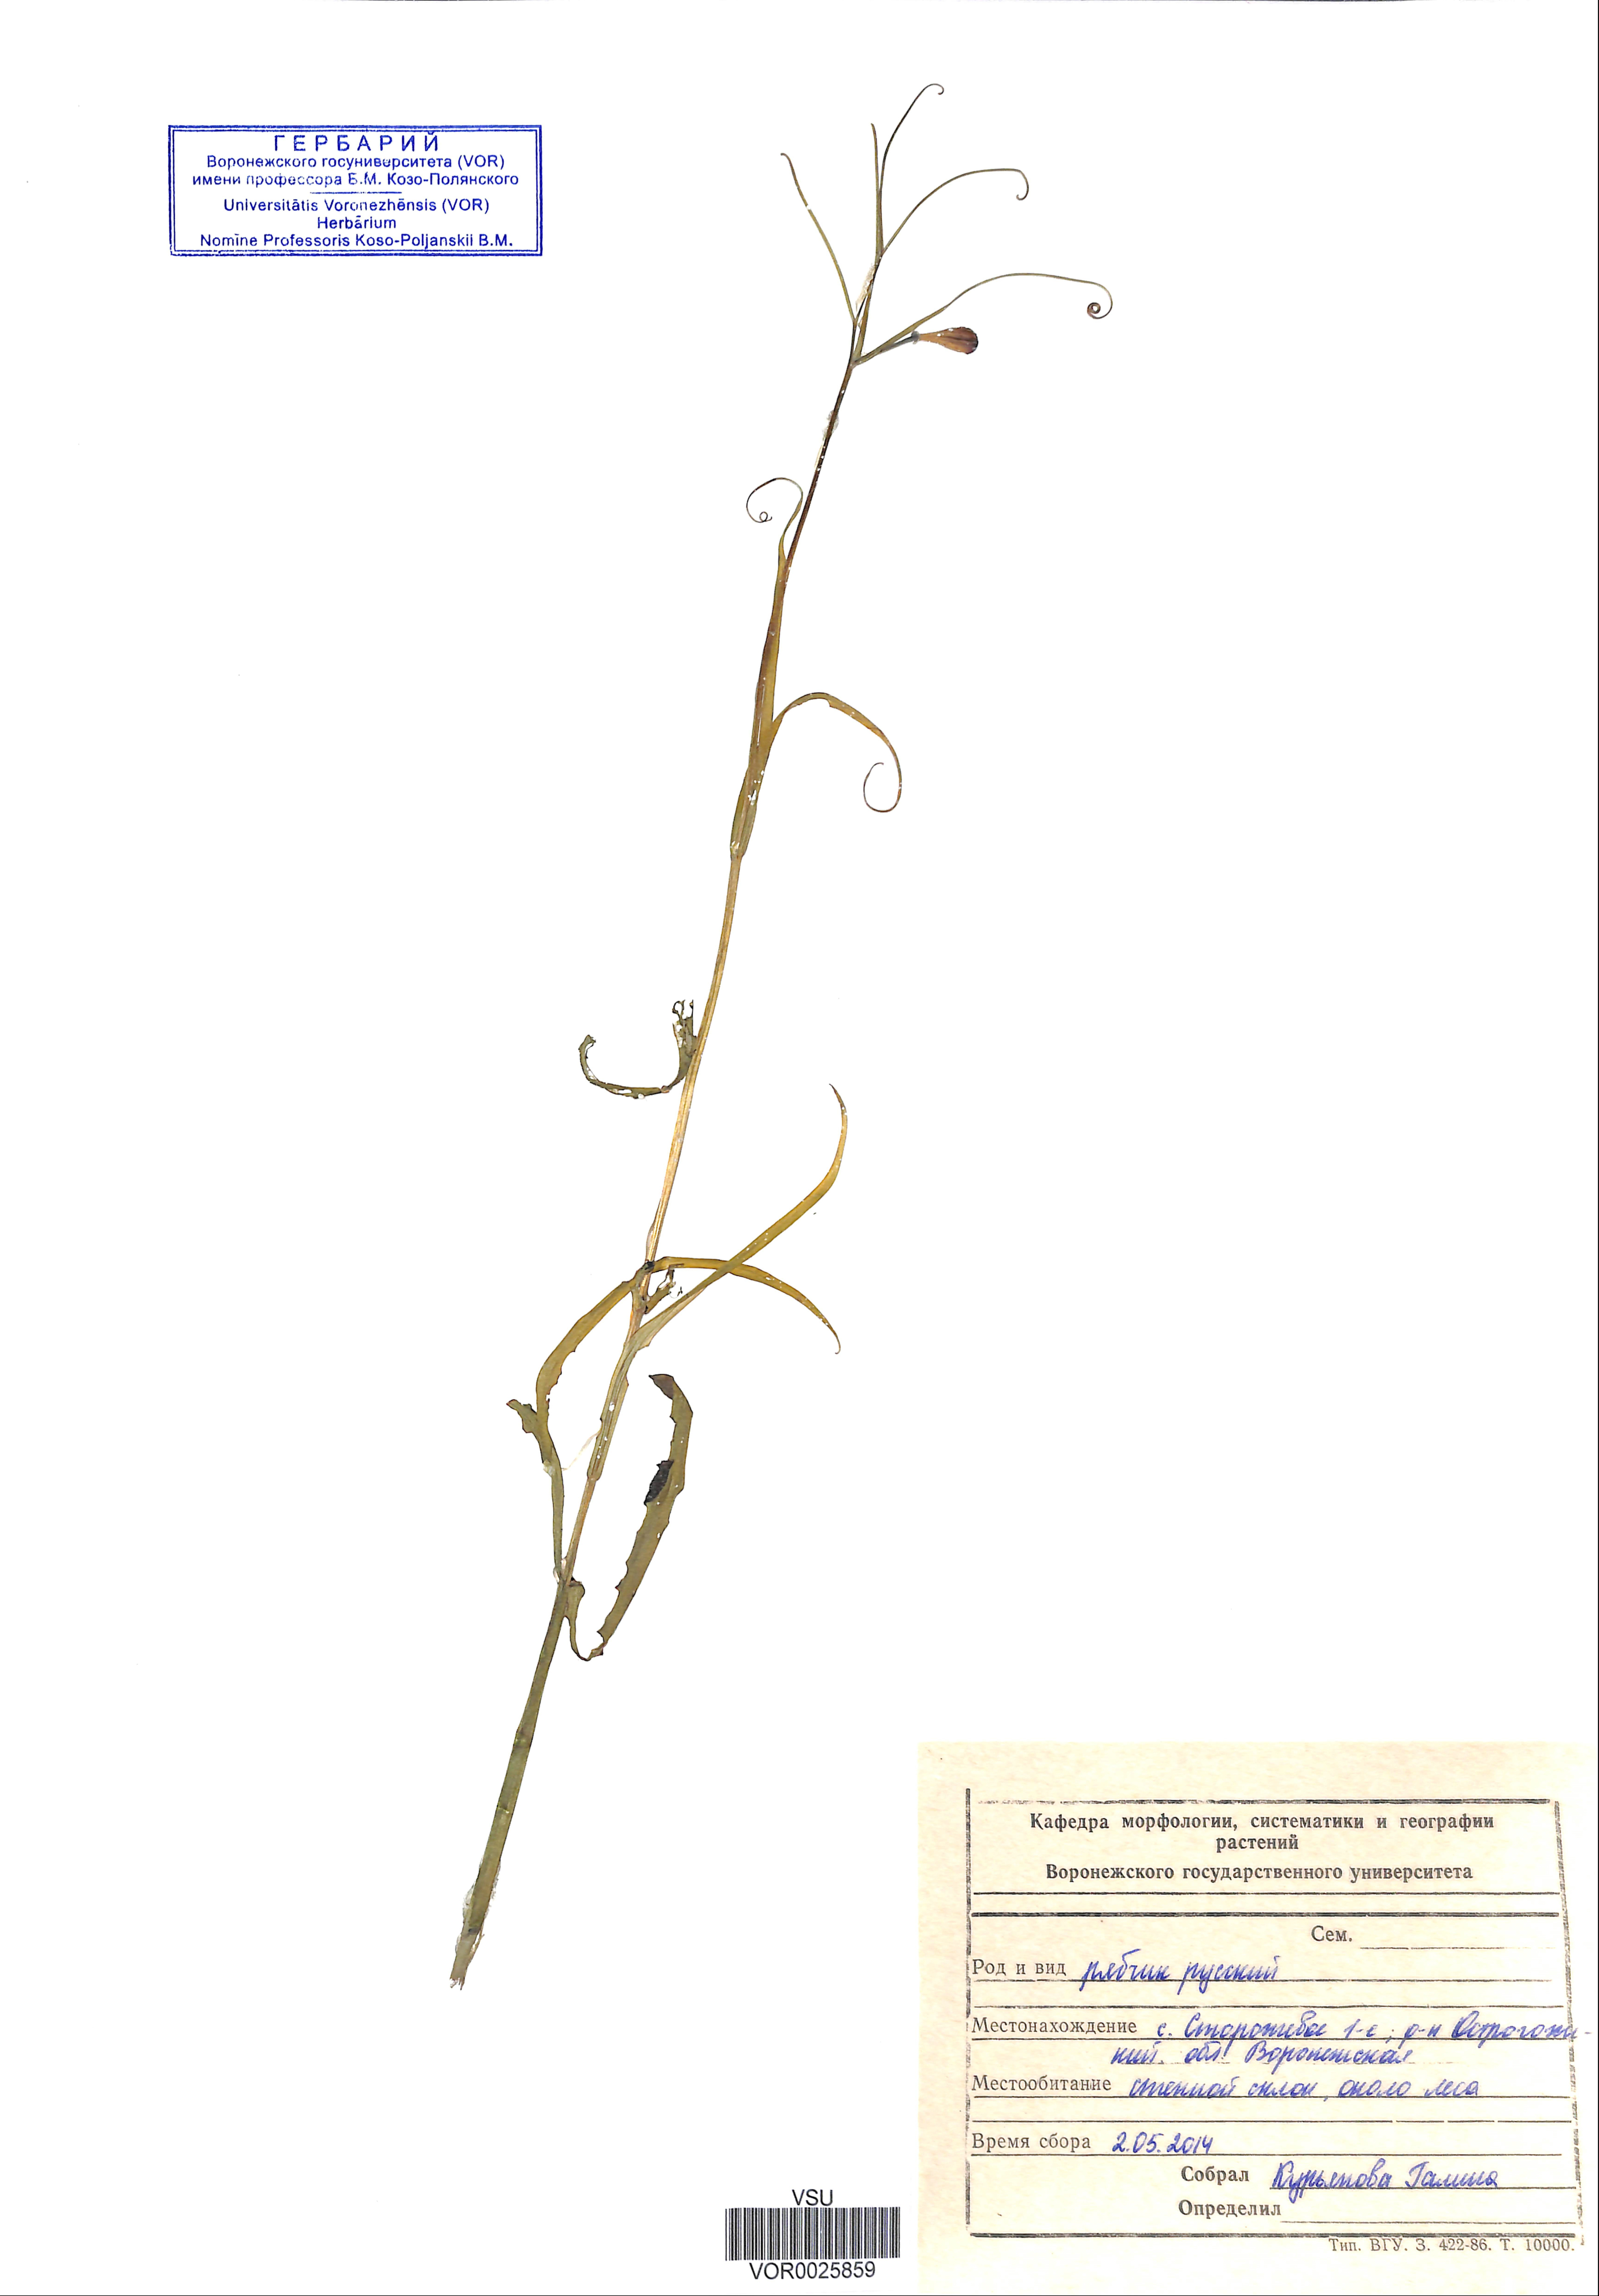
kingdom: Plantae
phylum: Tracheophyta
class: Liliopsida
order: Liliales
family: Liliaceae
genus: Fritillaria
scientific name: Fritillaria ruthenica
